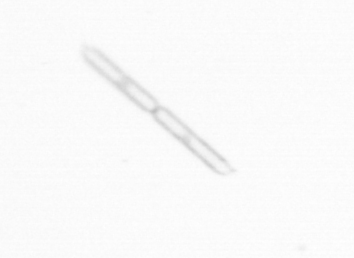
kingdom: Chromista
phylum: Ochrophyta
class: Bacillariophyceae
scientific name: Bacillariophyceae
